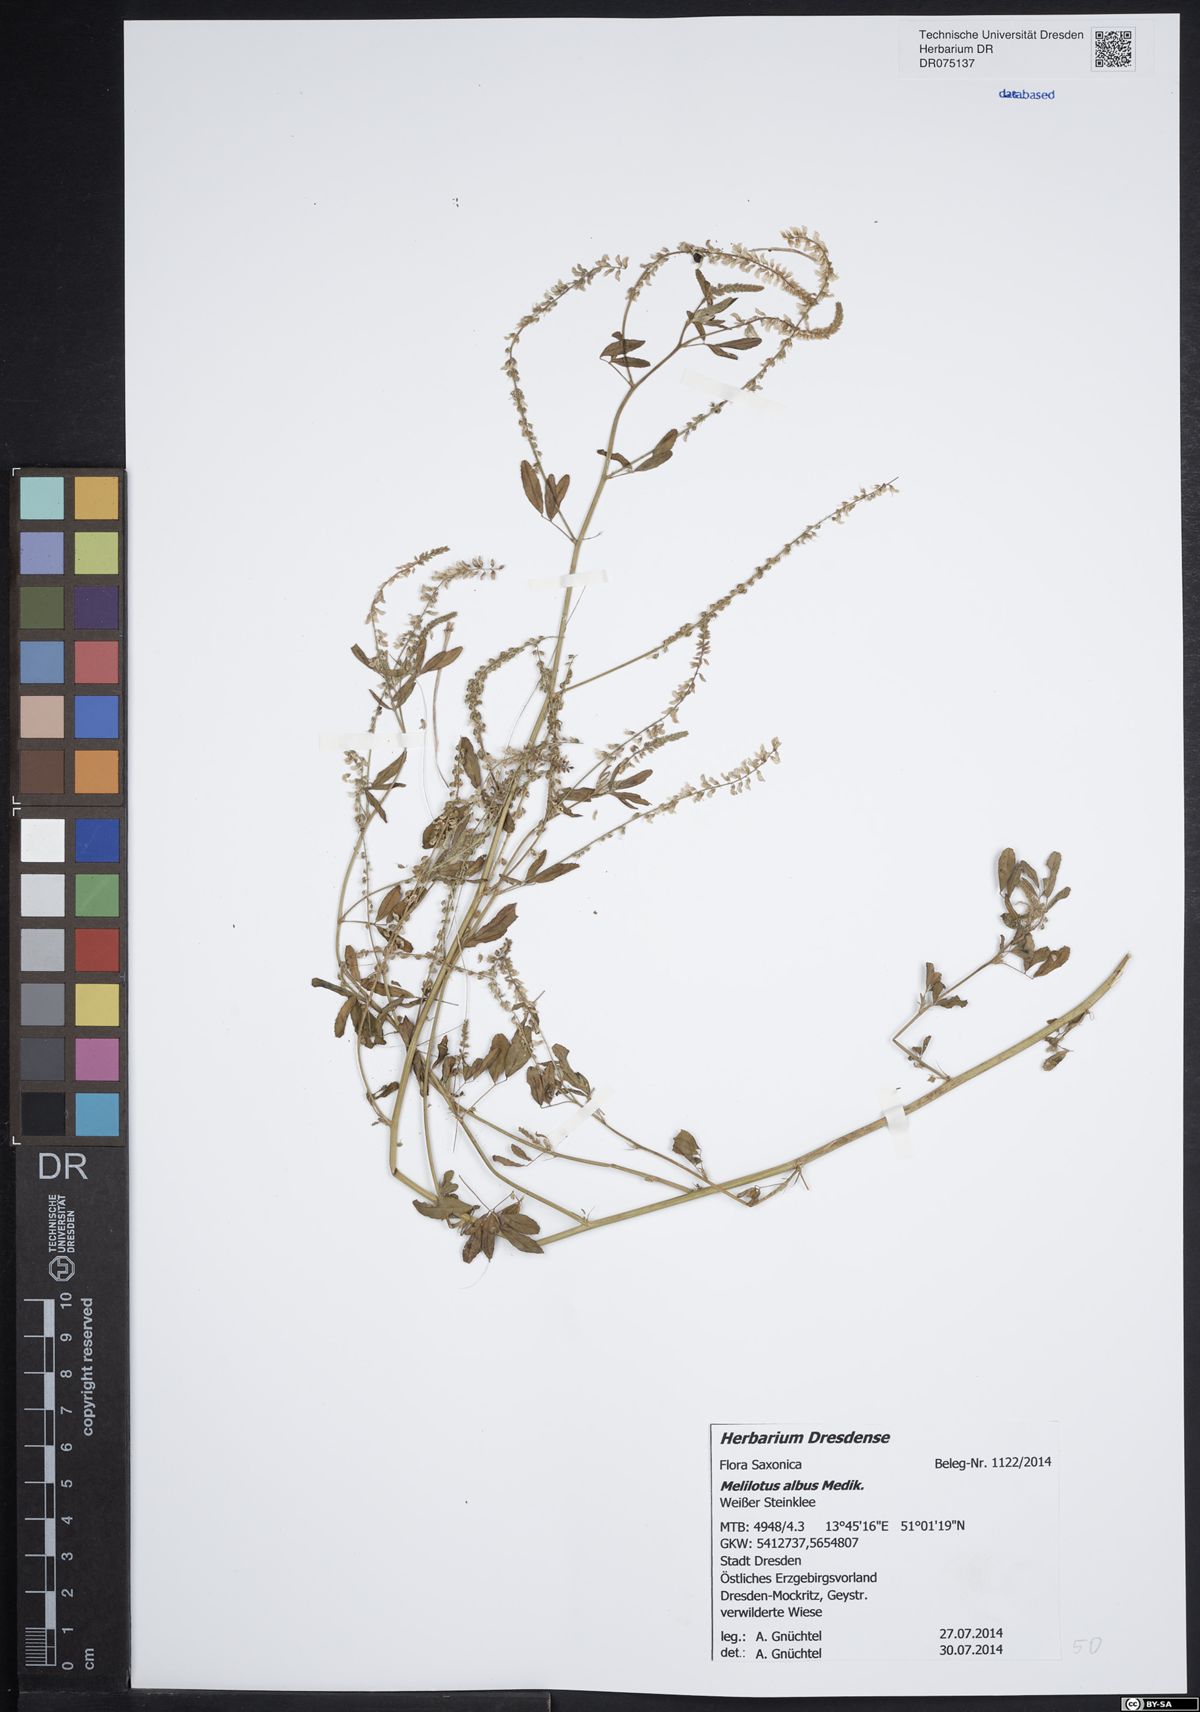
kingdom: Plantae
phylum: Tracheophyta
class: Magnoliopsida
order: Fabales
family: Fabaceae
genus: Melilotus
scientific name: Melilotus albus
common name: White melilot
